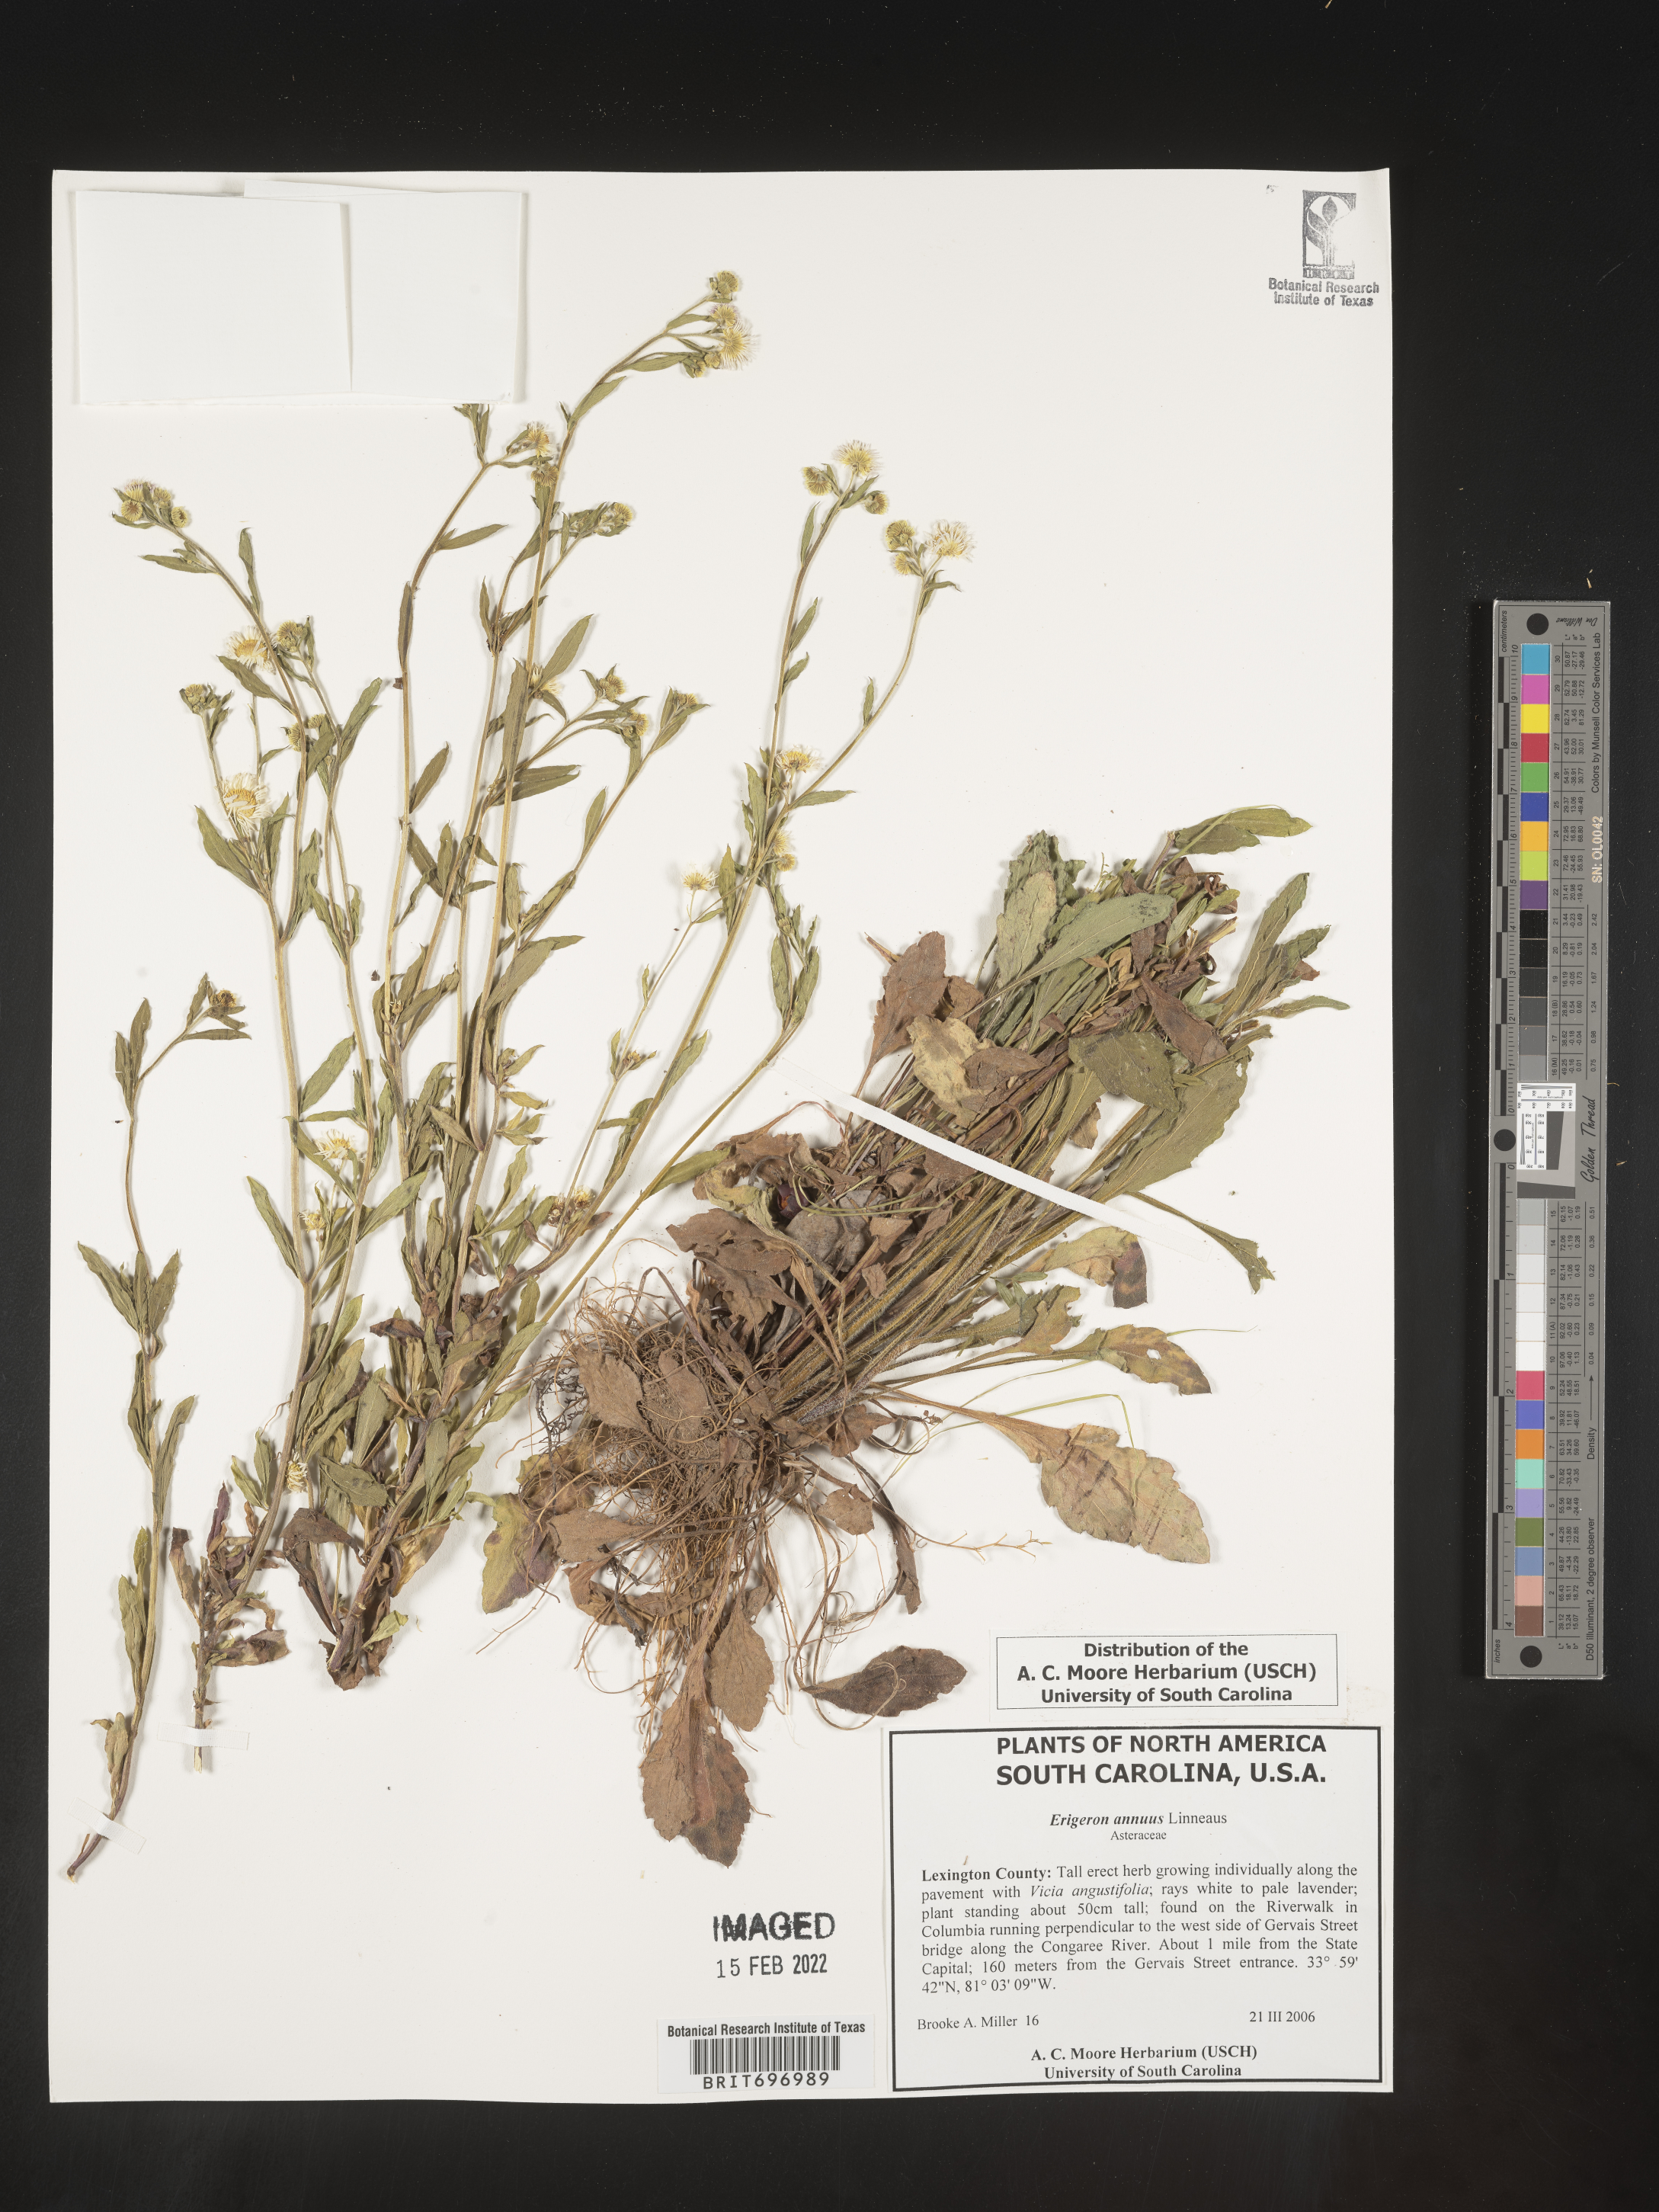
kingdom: Plantae
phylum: Tracheophyta
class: Magnoliopsida
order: Asterales
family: Asteraceae
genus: Erigeron
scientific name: Erigeron annuus
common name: Tall fleabane
